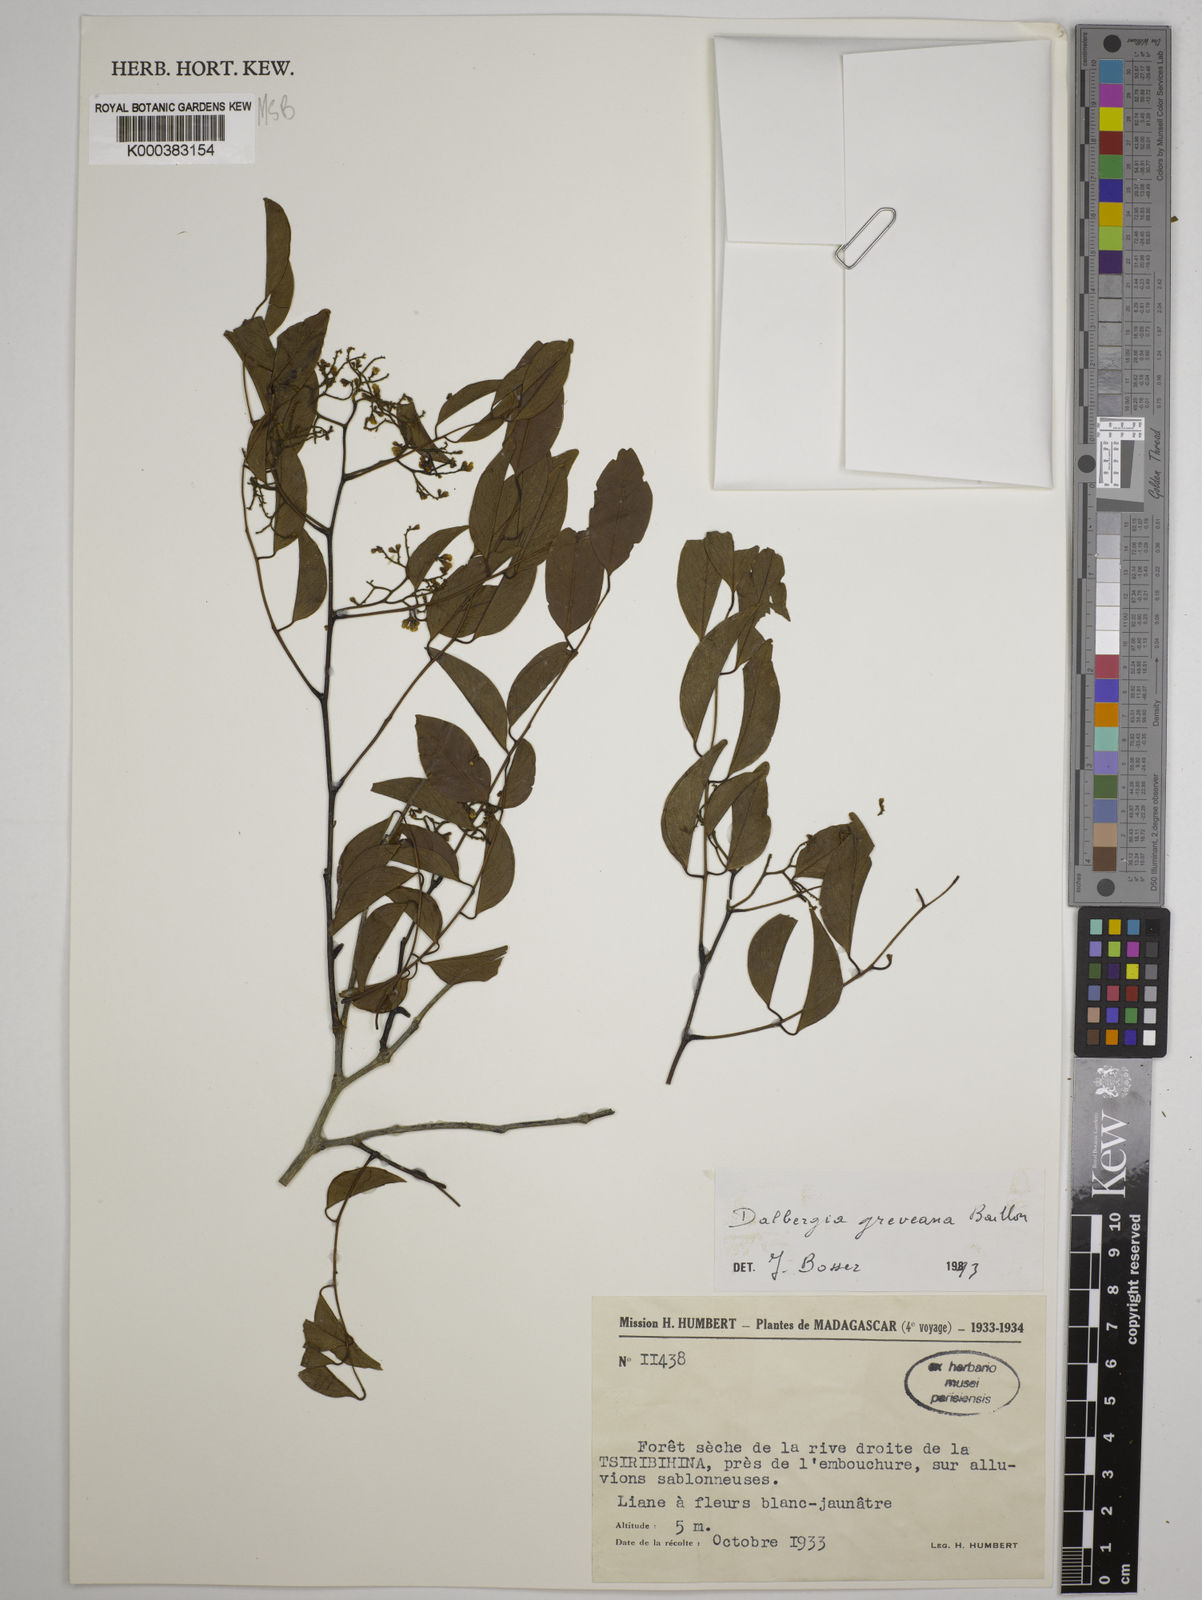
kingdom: Plantae
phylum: Tracheophyta
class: Magnoliopsida
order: Fabales
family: Fabaceae
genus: Dalbergia
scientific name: Dalbergia greveana
